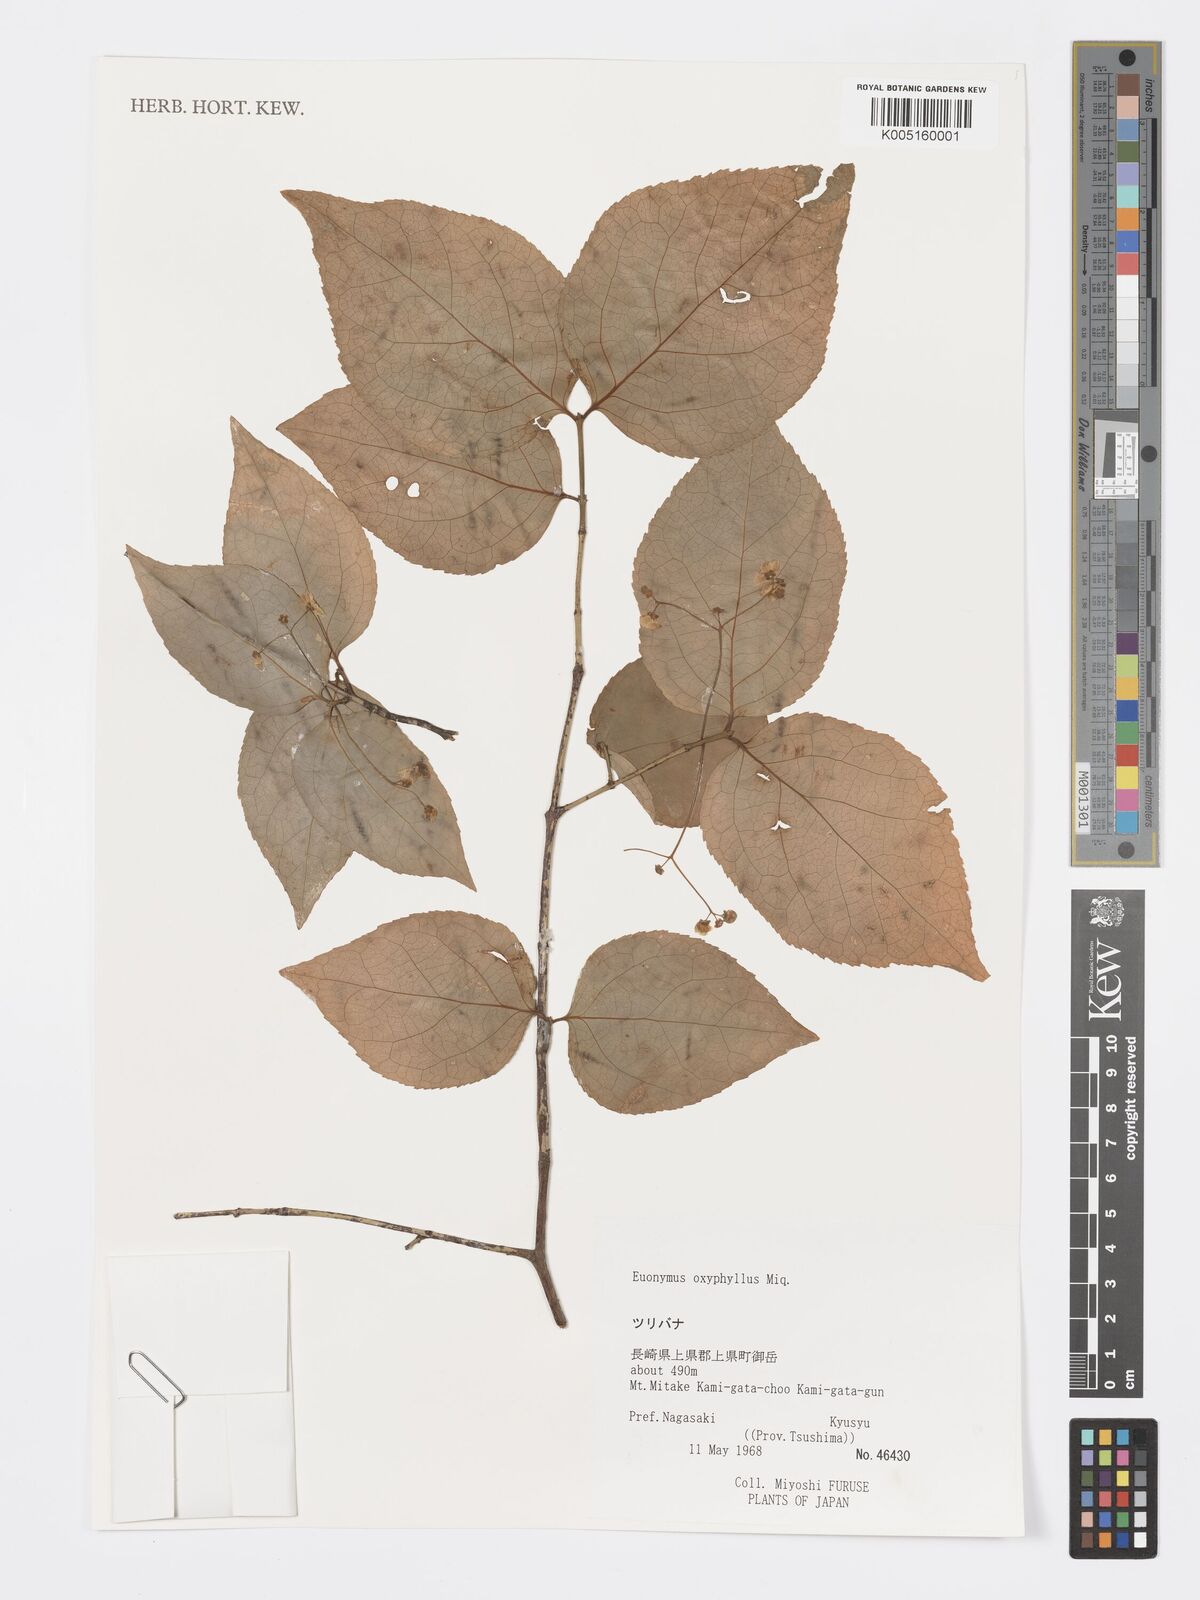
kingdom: Plantae
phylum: Tracheophyta
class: Magnoliopsida
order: Celastrales
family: Celastraceae
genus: Euonymus
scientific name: Euonymus oxyphyllus
